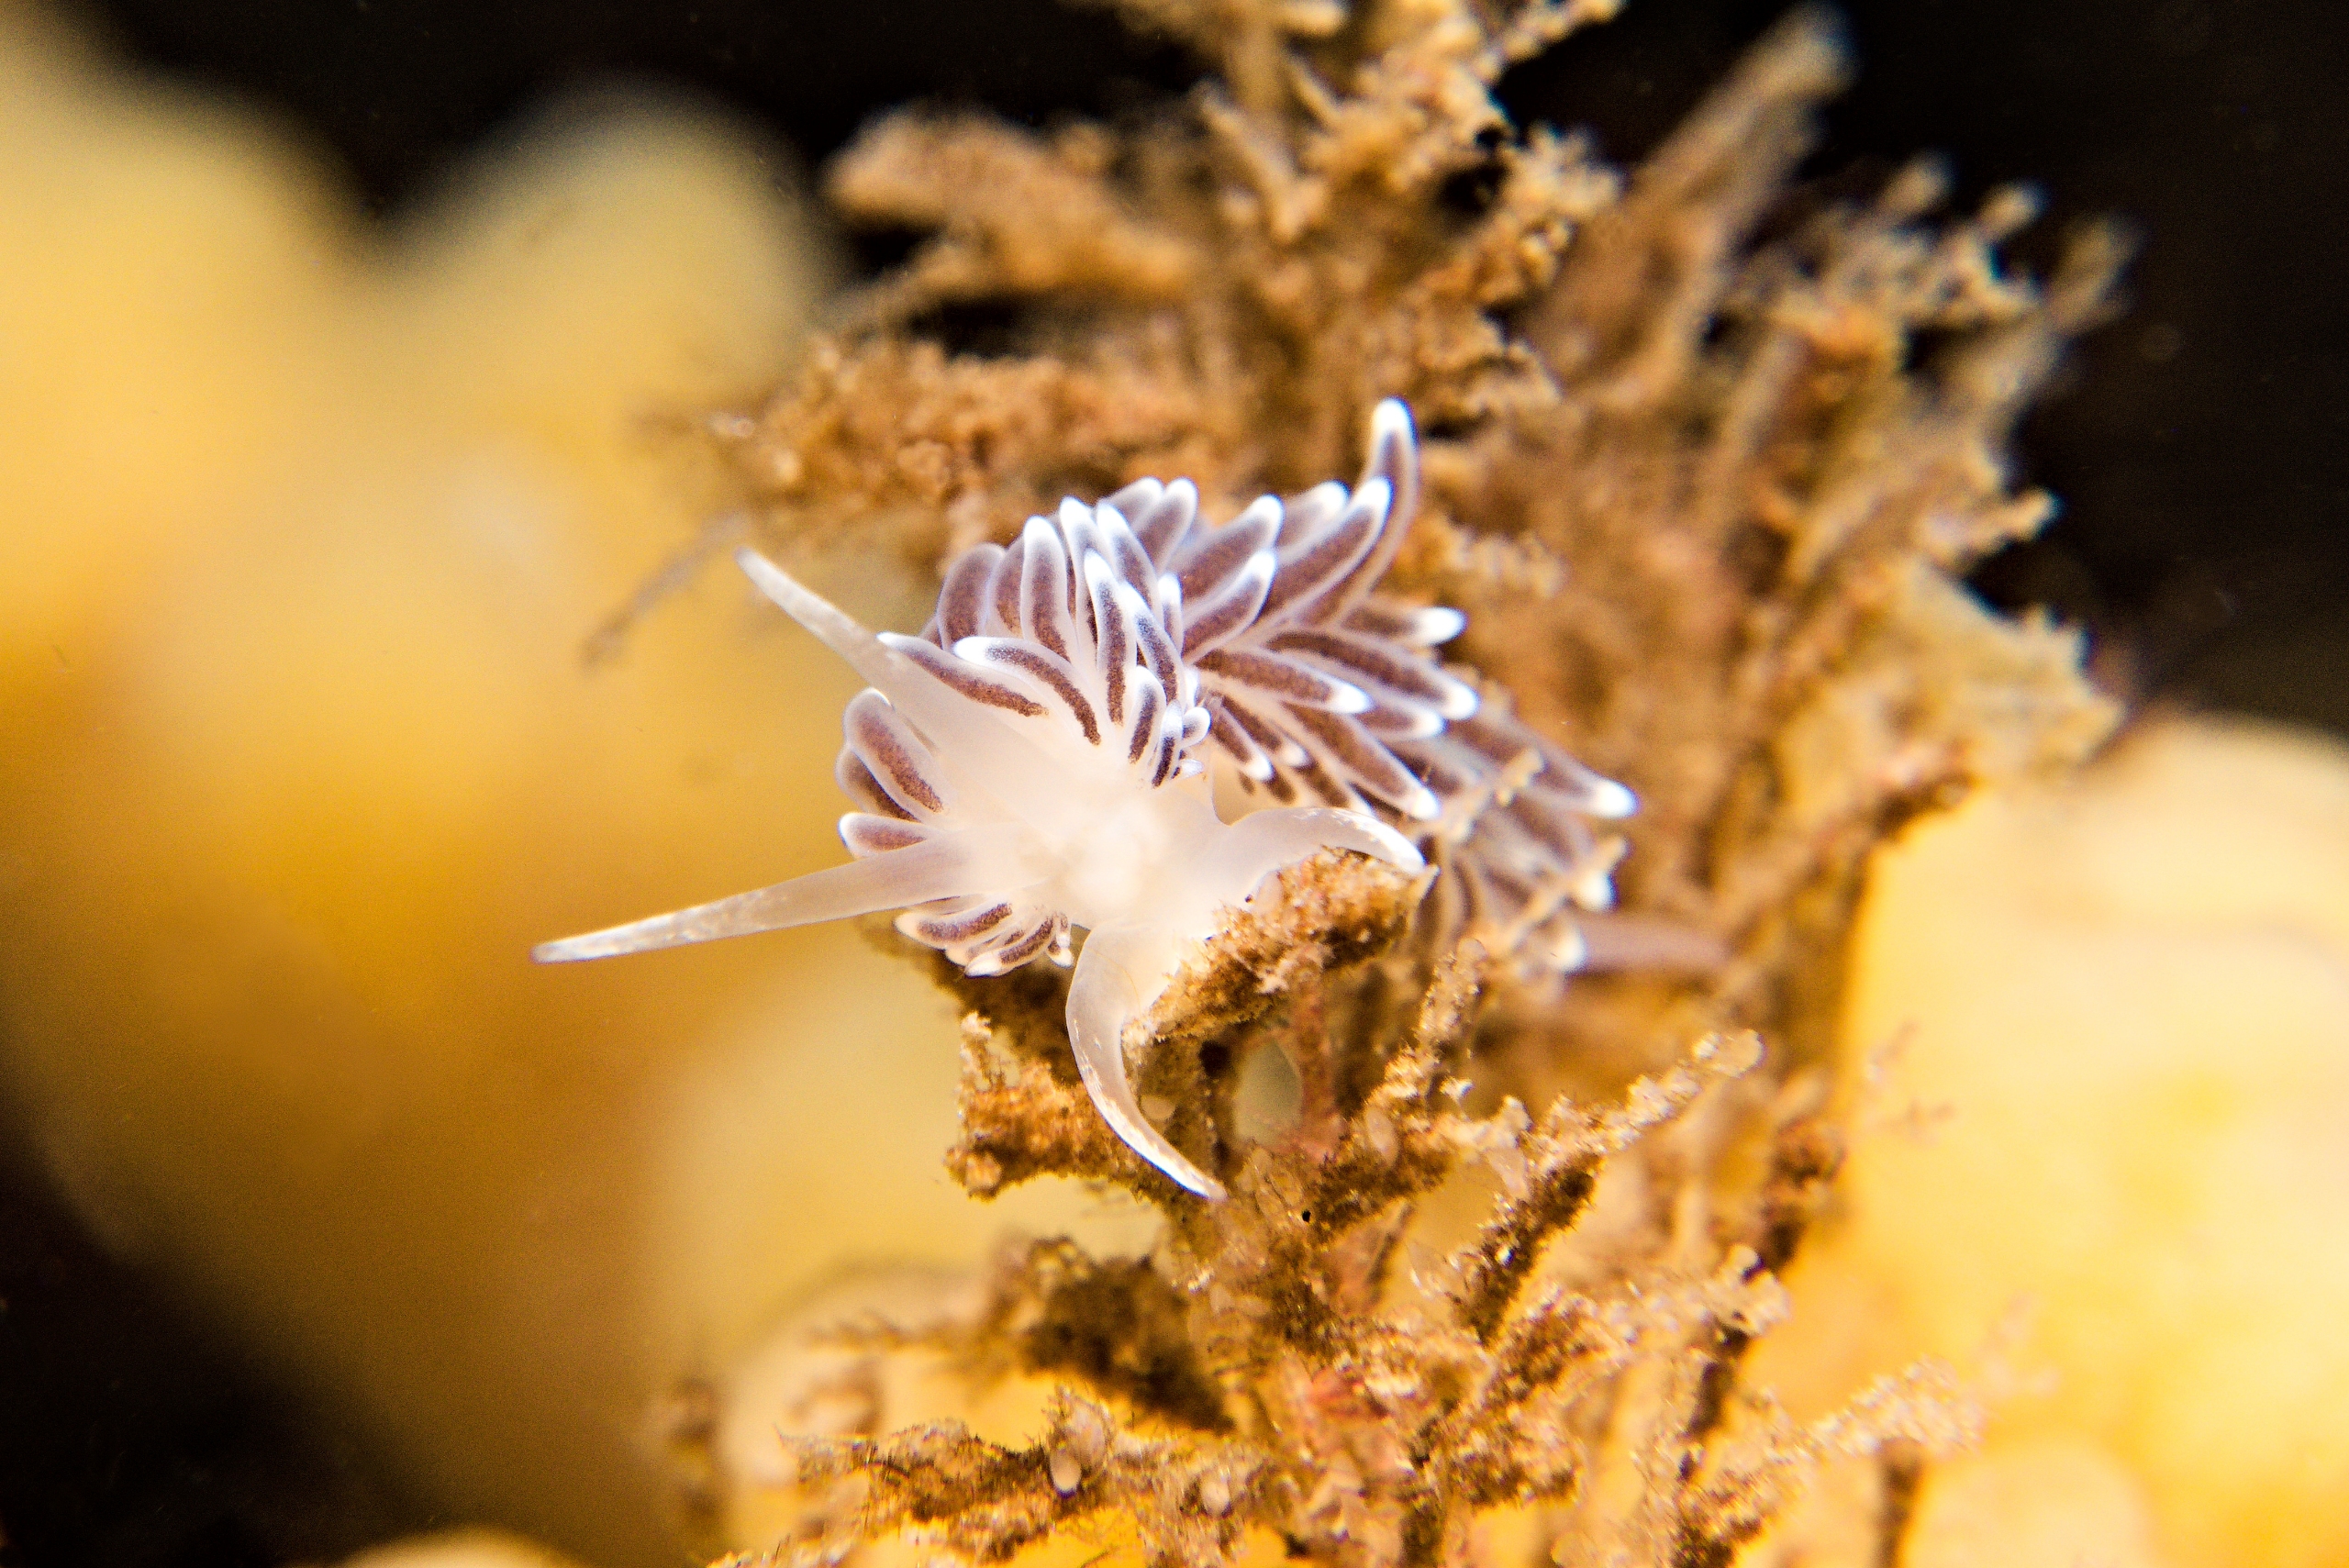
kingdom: Animalia
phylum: Mollusca
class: Gastropoda
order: Nudibranchia
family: Cuthonellidae
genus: Cuthonella
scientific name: Cuthonella concinna
